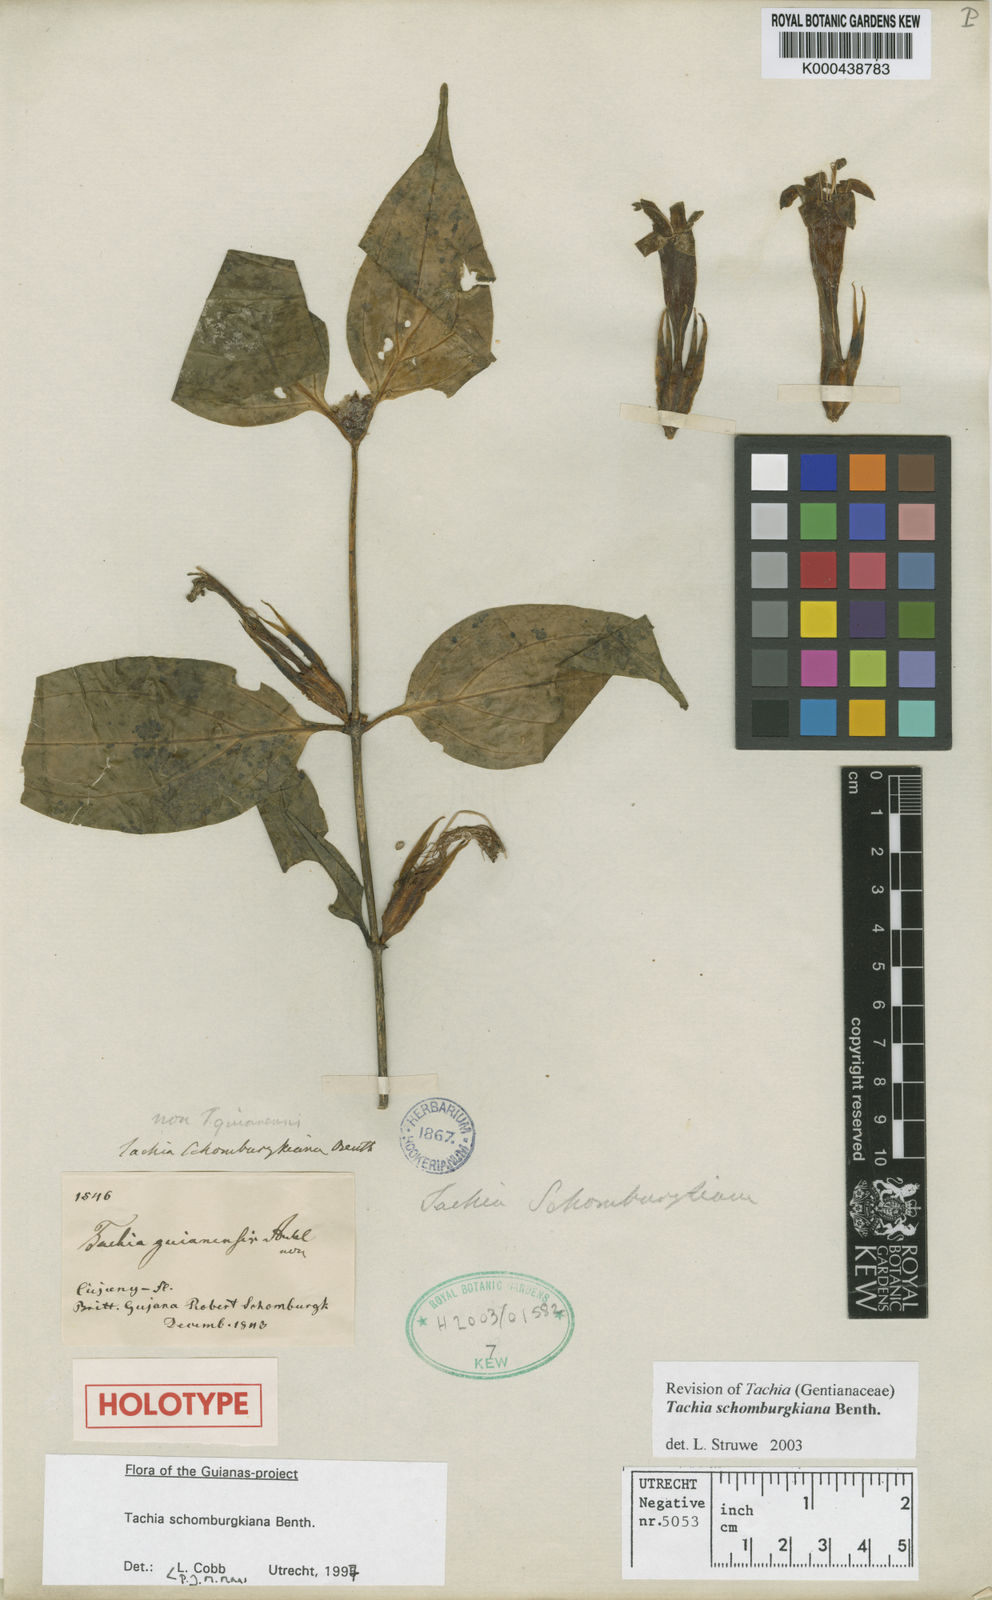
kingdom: Plantae
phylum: Tracheophyta
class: Magnoliopsida
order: Gentianales
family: Gentianaceae
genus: Tachia
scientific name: Tachia schomburgkiana
